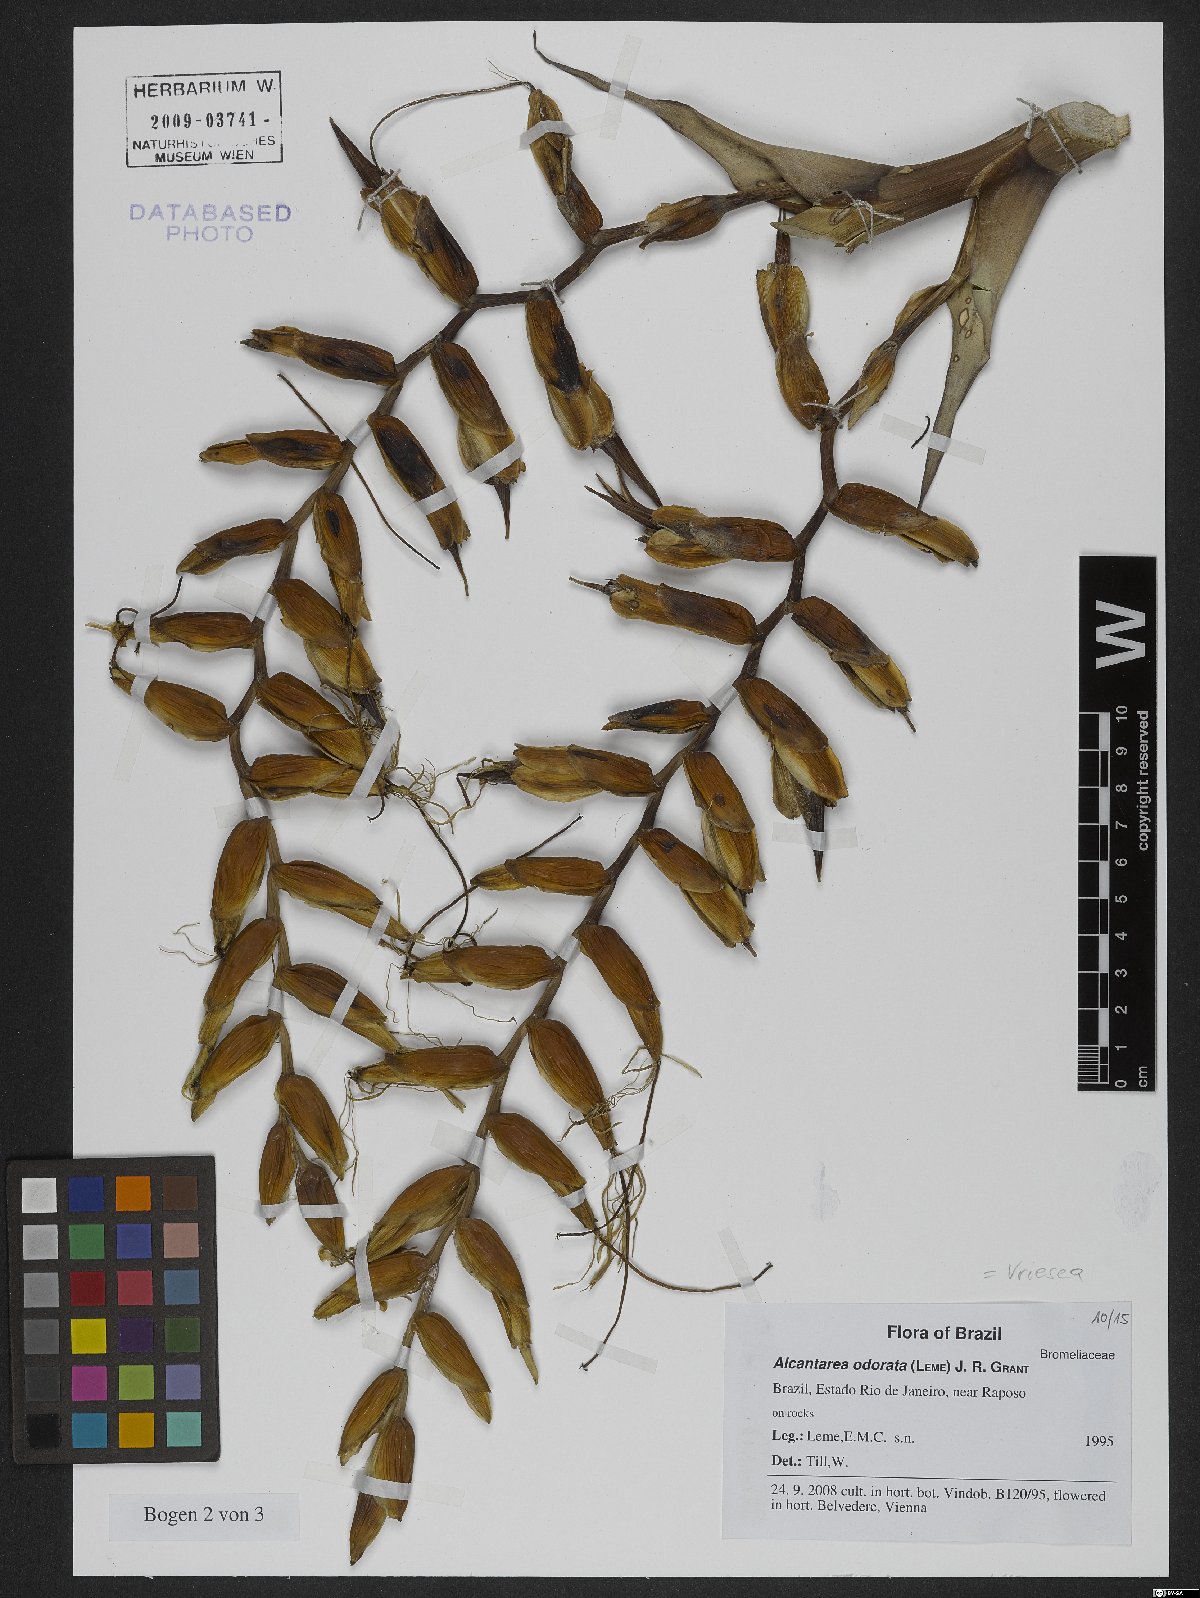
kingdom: Plantae
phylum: Tracheophyta
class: Liliopsida
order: Poales
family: Bromeliaceae
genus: Alcantarea
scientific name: Alcantarea odorata
